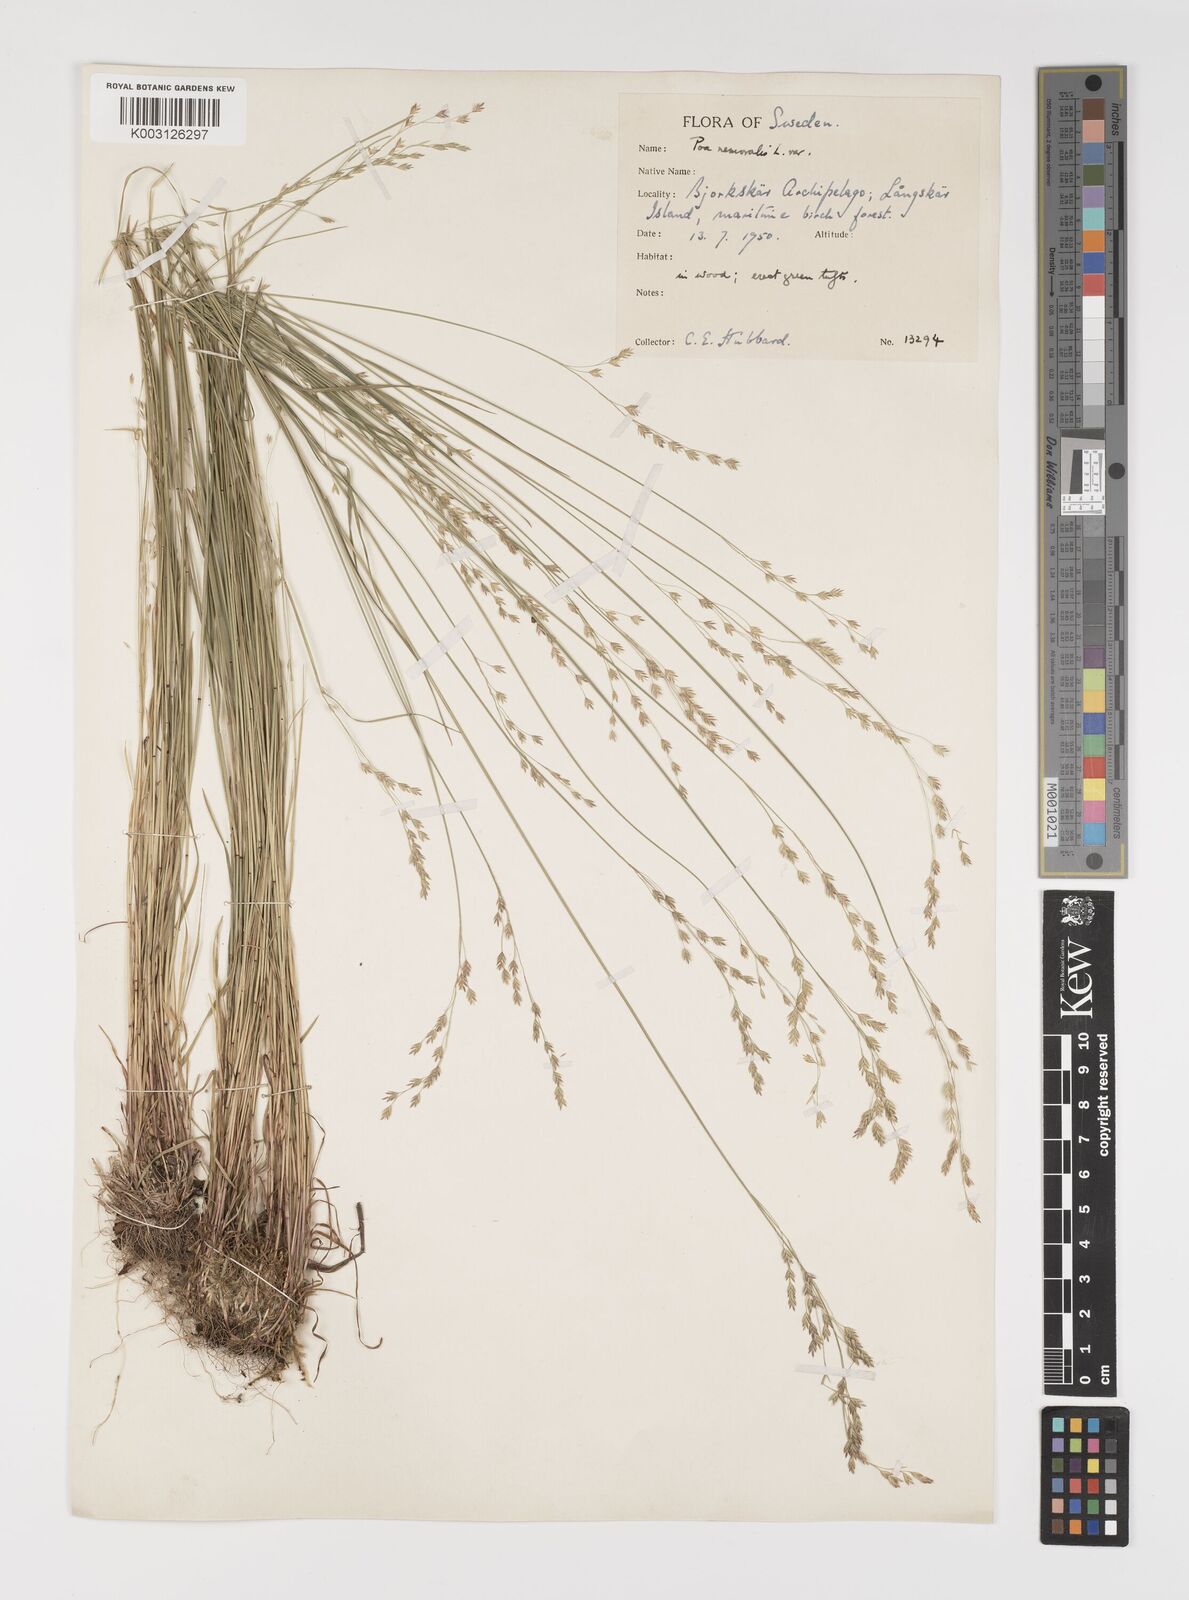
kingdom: Plantae
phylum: Tracheophyta
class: Liliopsida
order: Poales
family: Poaceae
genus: Poa
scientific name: Poa glauca
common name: Glaucous bluegrass
